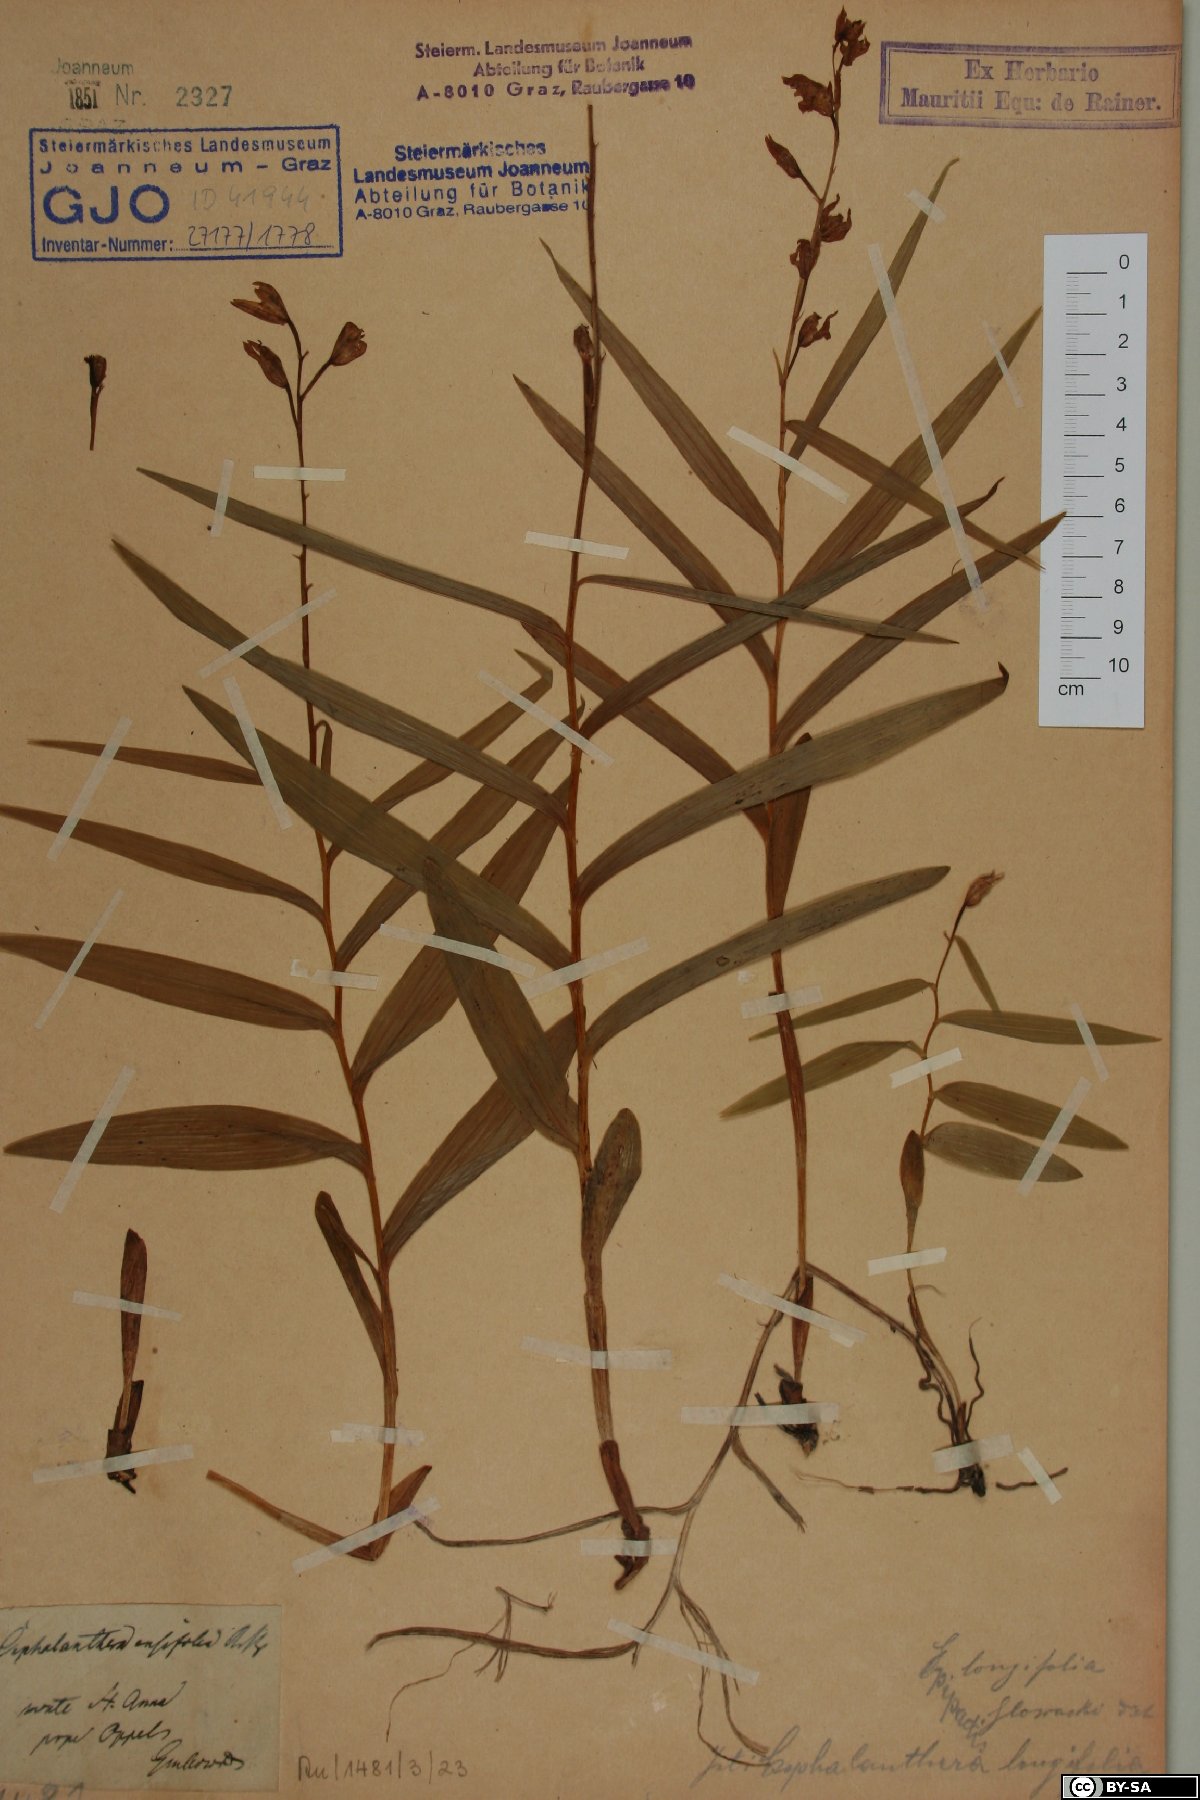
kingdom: Plantae
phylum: Tracheophyta
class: Liliopsida
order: Asparagales
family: Orchidaceae
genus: Cephalanthera
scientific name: Cephalanthera longifolia
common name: Narrow-leaved helleborine
